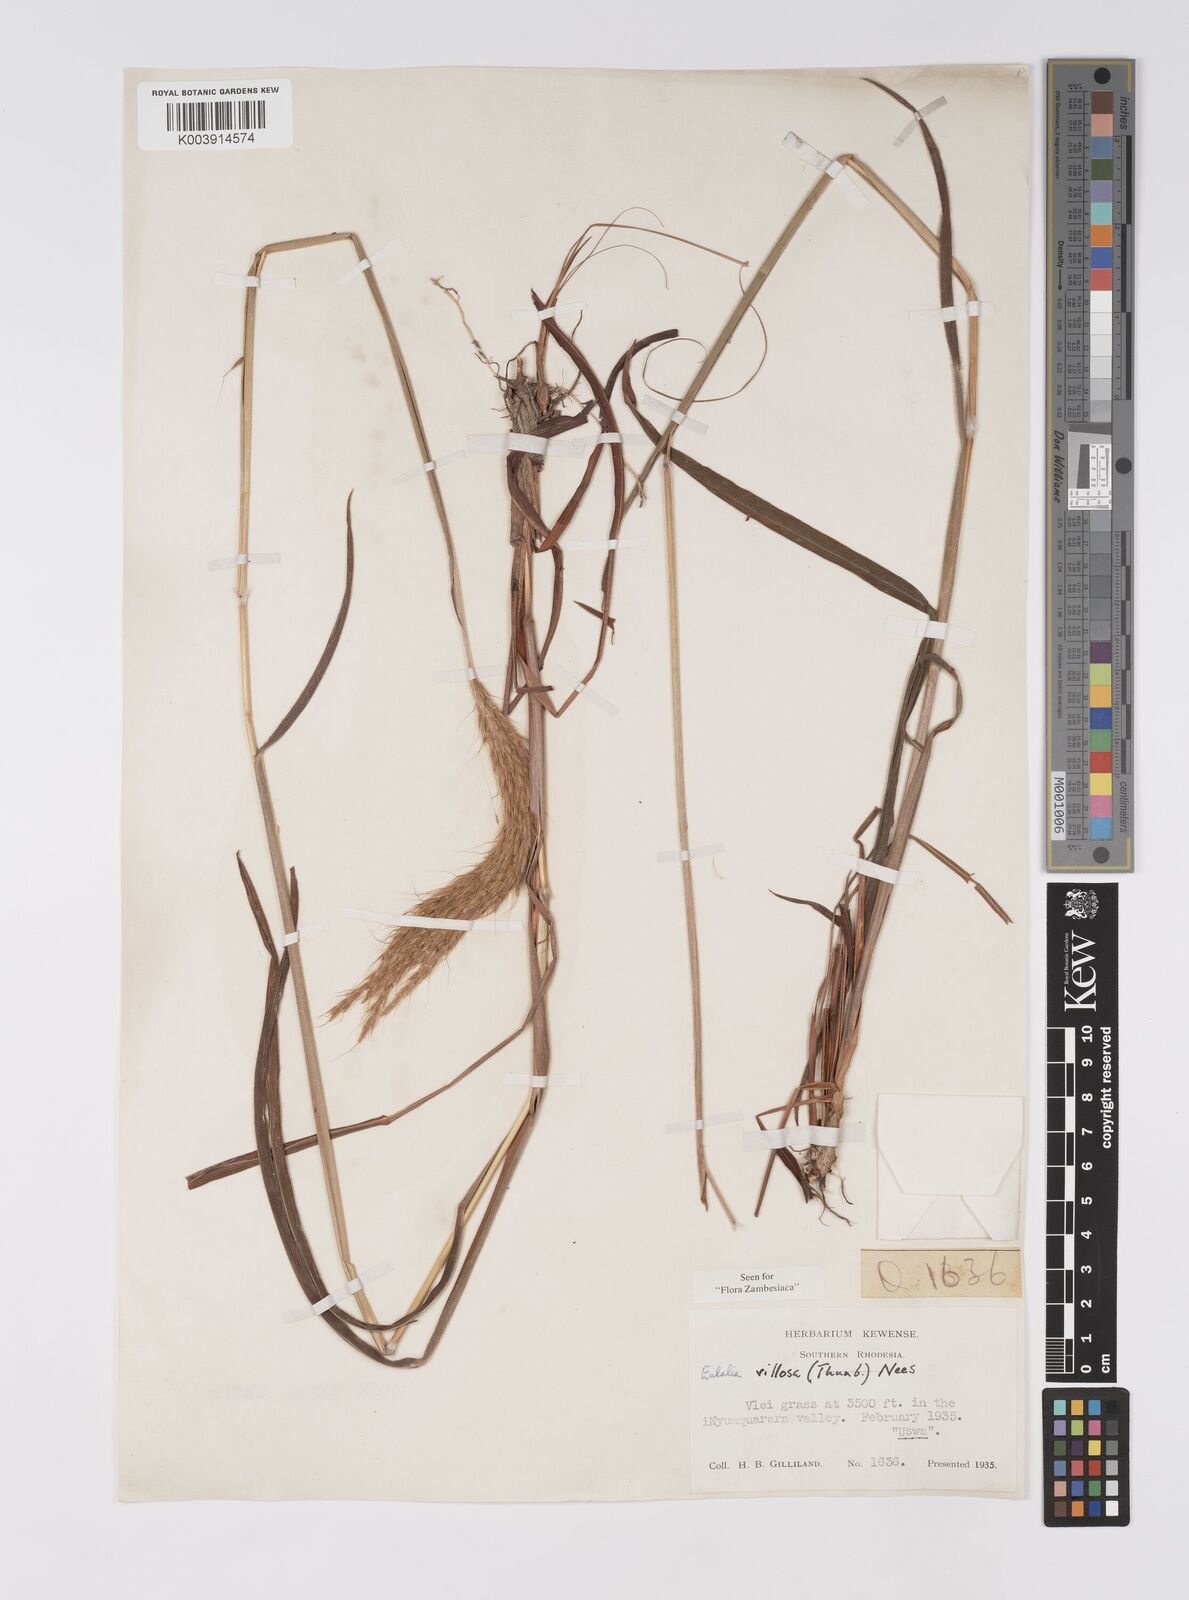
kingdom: Plantae
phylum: Tracheophyta
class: Liliopsida
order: Poales
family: Poaceae
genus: Eulalia
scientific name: Eulalia villosa
